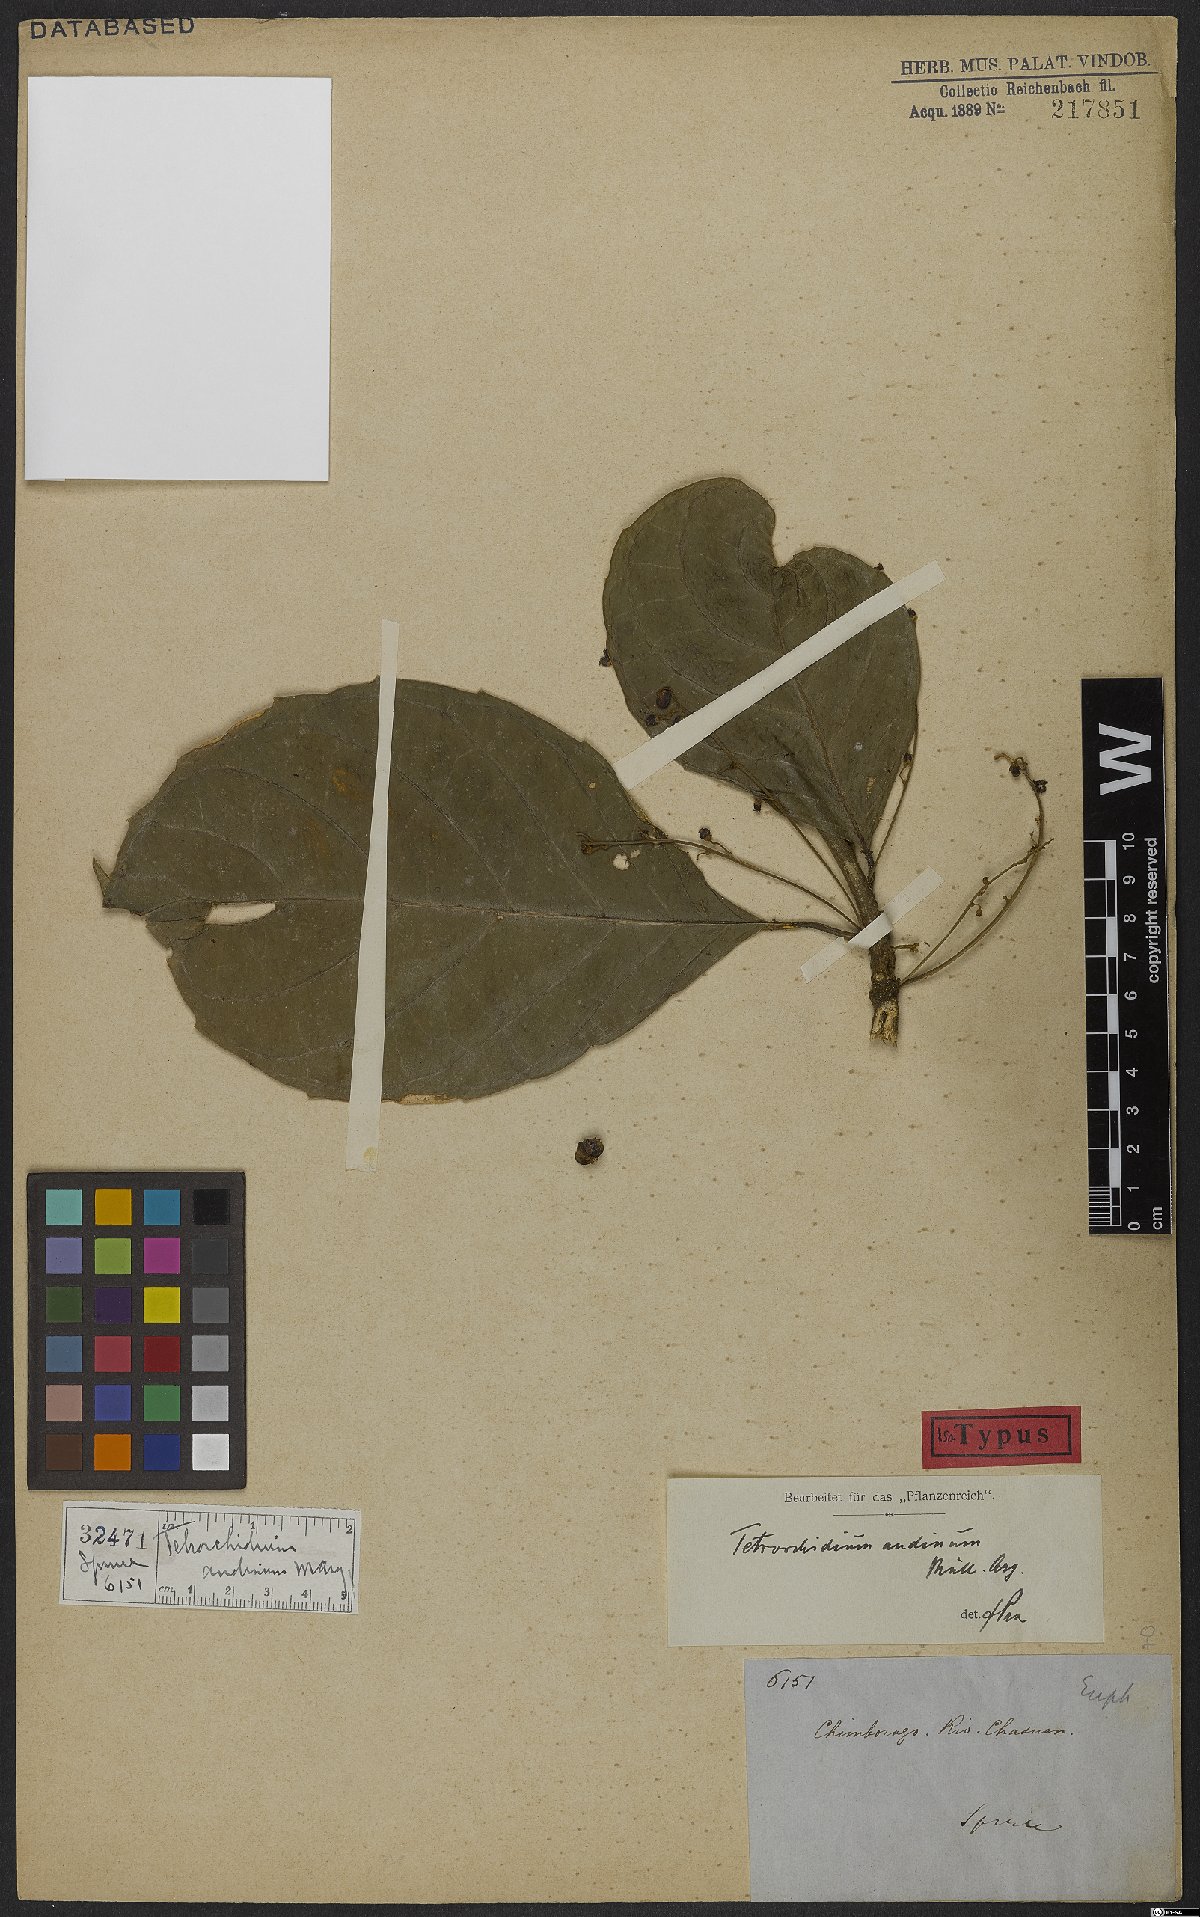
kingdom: Plantae
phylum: Tracheophyta
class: Magnoliopsida
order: Malpighiales
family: Euphorbiaceae
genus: Tetrorchidium
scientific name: Tetrorchidium andinum
